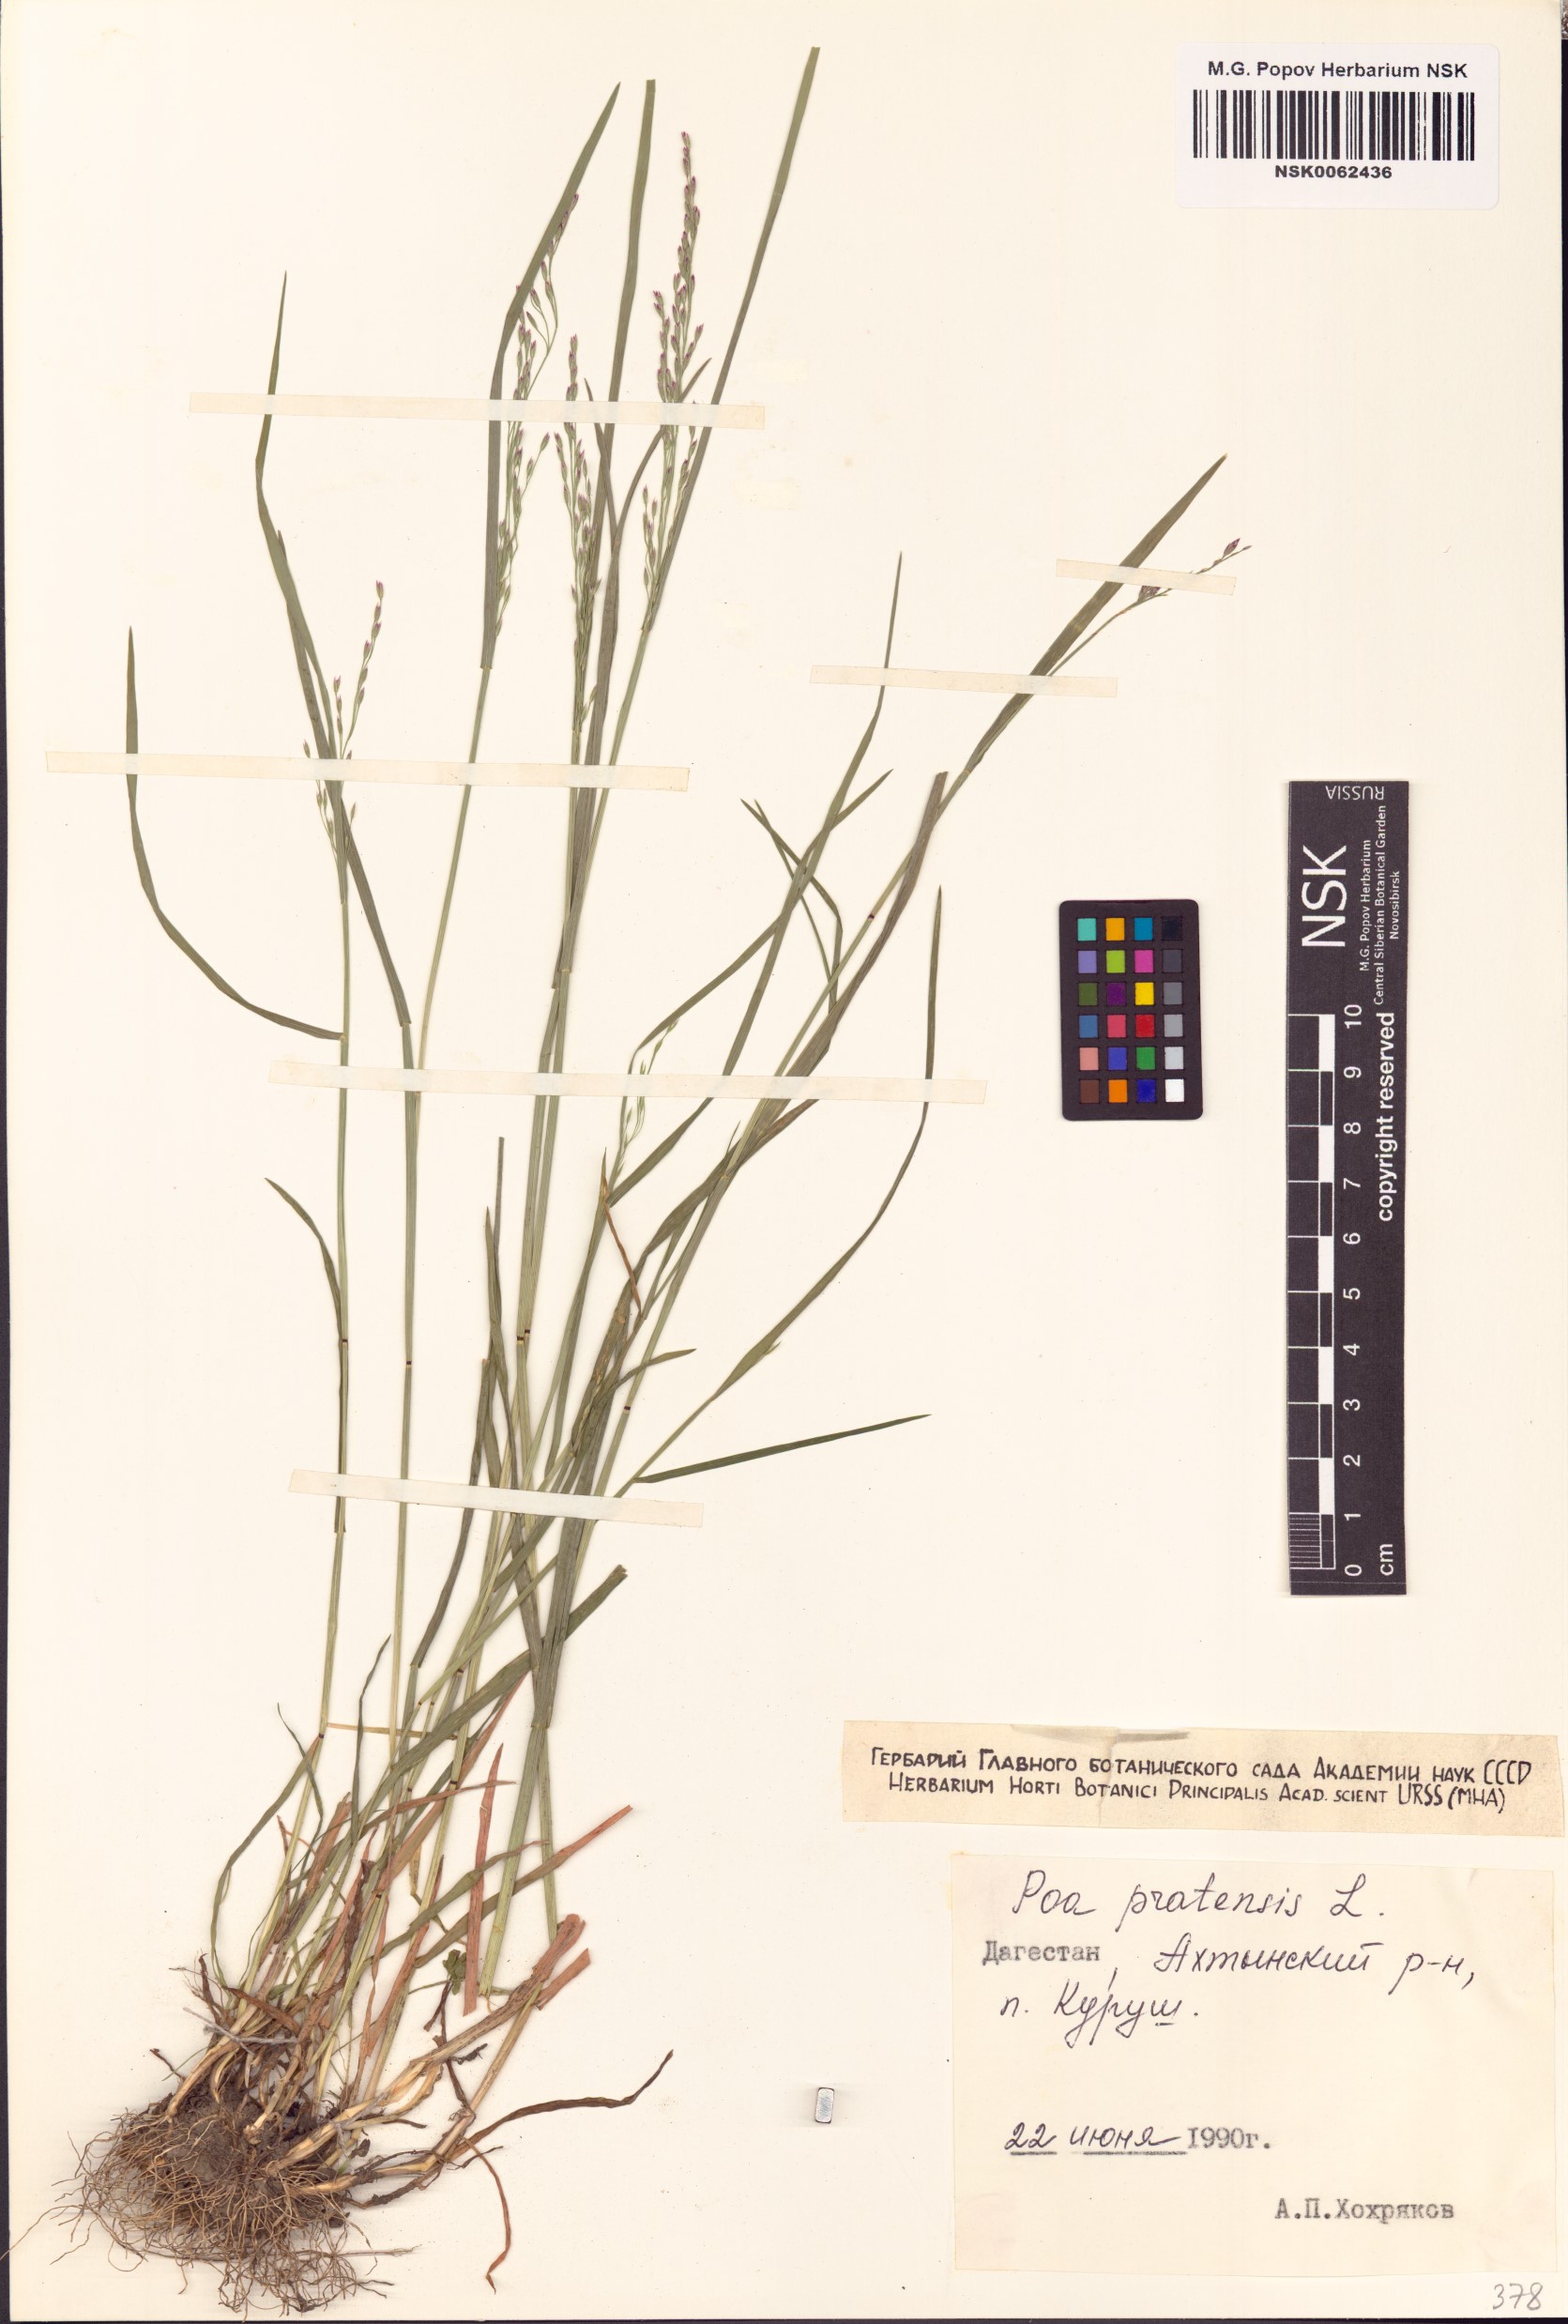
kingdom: Plantae
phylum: Tracheophyta
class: Liliopsida
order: Poales
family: Poaceae
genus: Poa
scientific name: Poa pratensis
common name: Kentucky bluegrass
